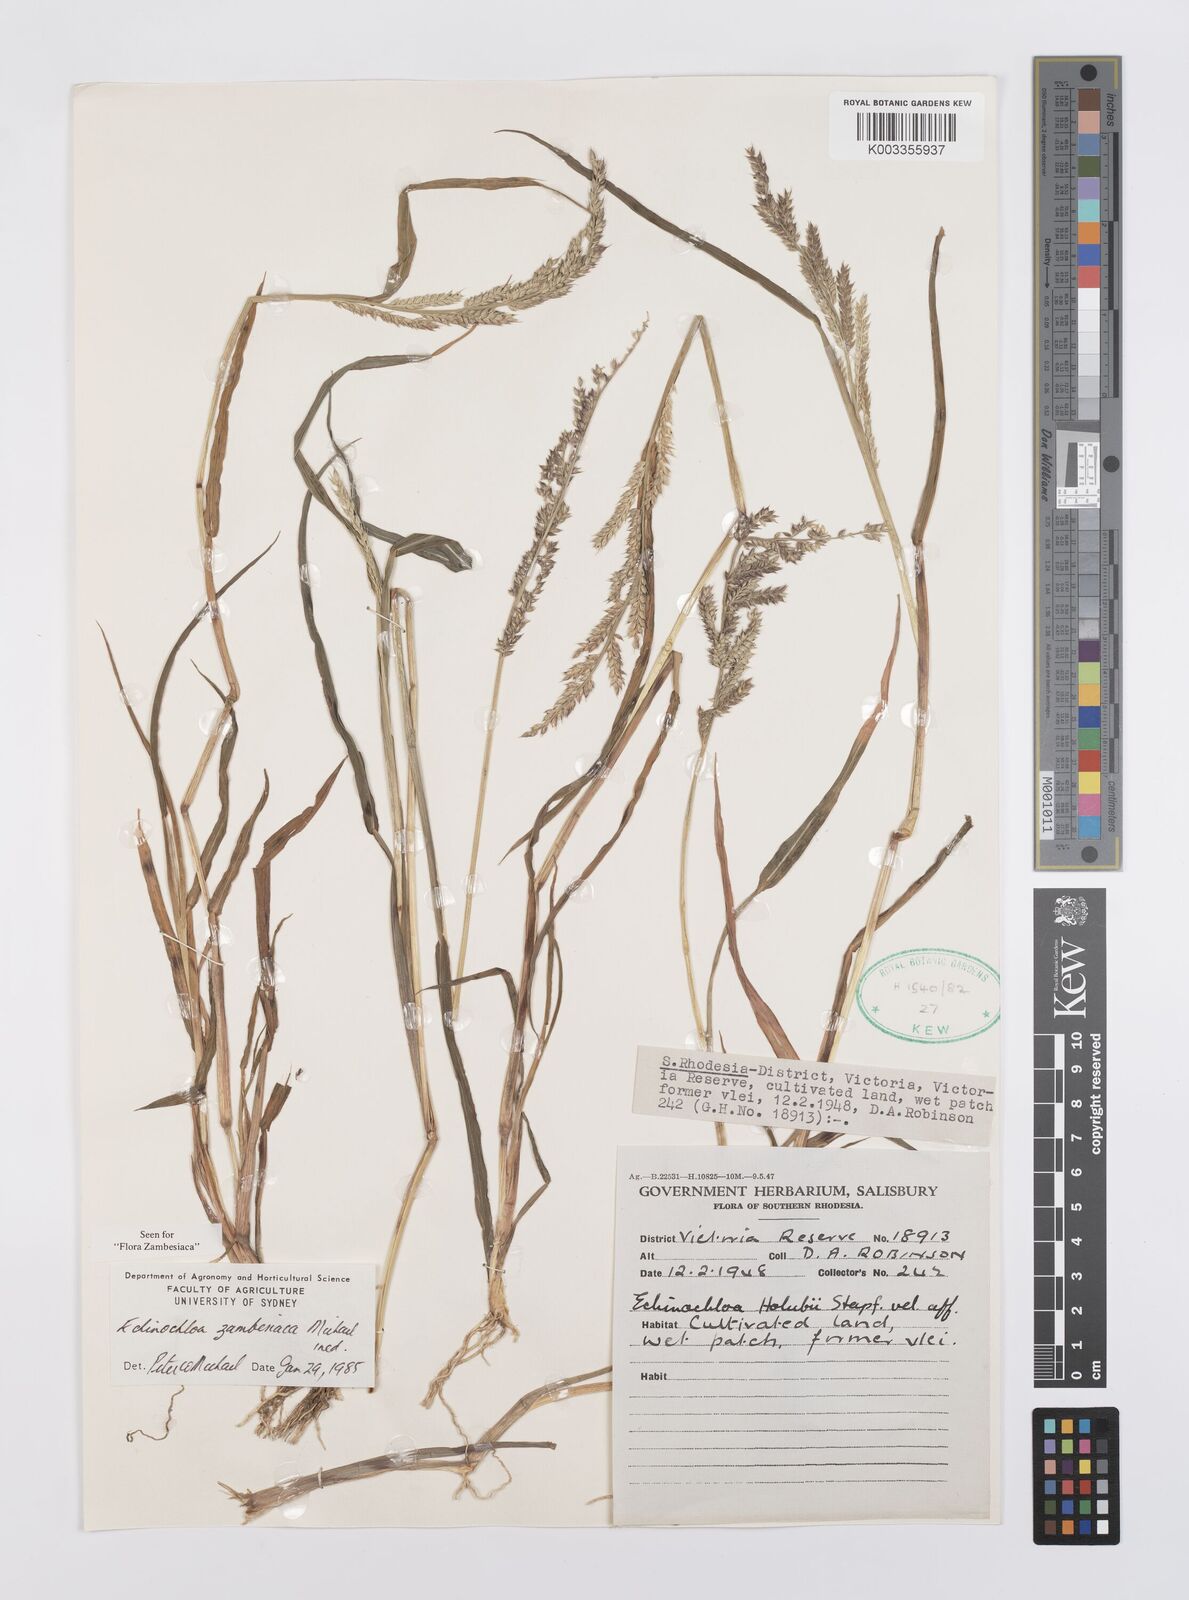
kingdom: Plantae
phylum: Tracheophyta
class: Liliopsida
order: Poales
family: Poaceae
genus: Echinochloa
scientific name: Echinochloa ugandensis
